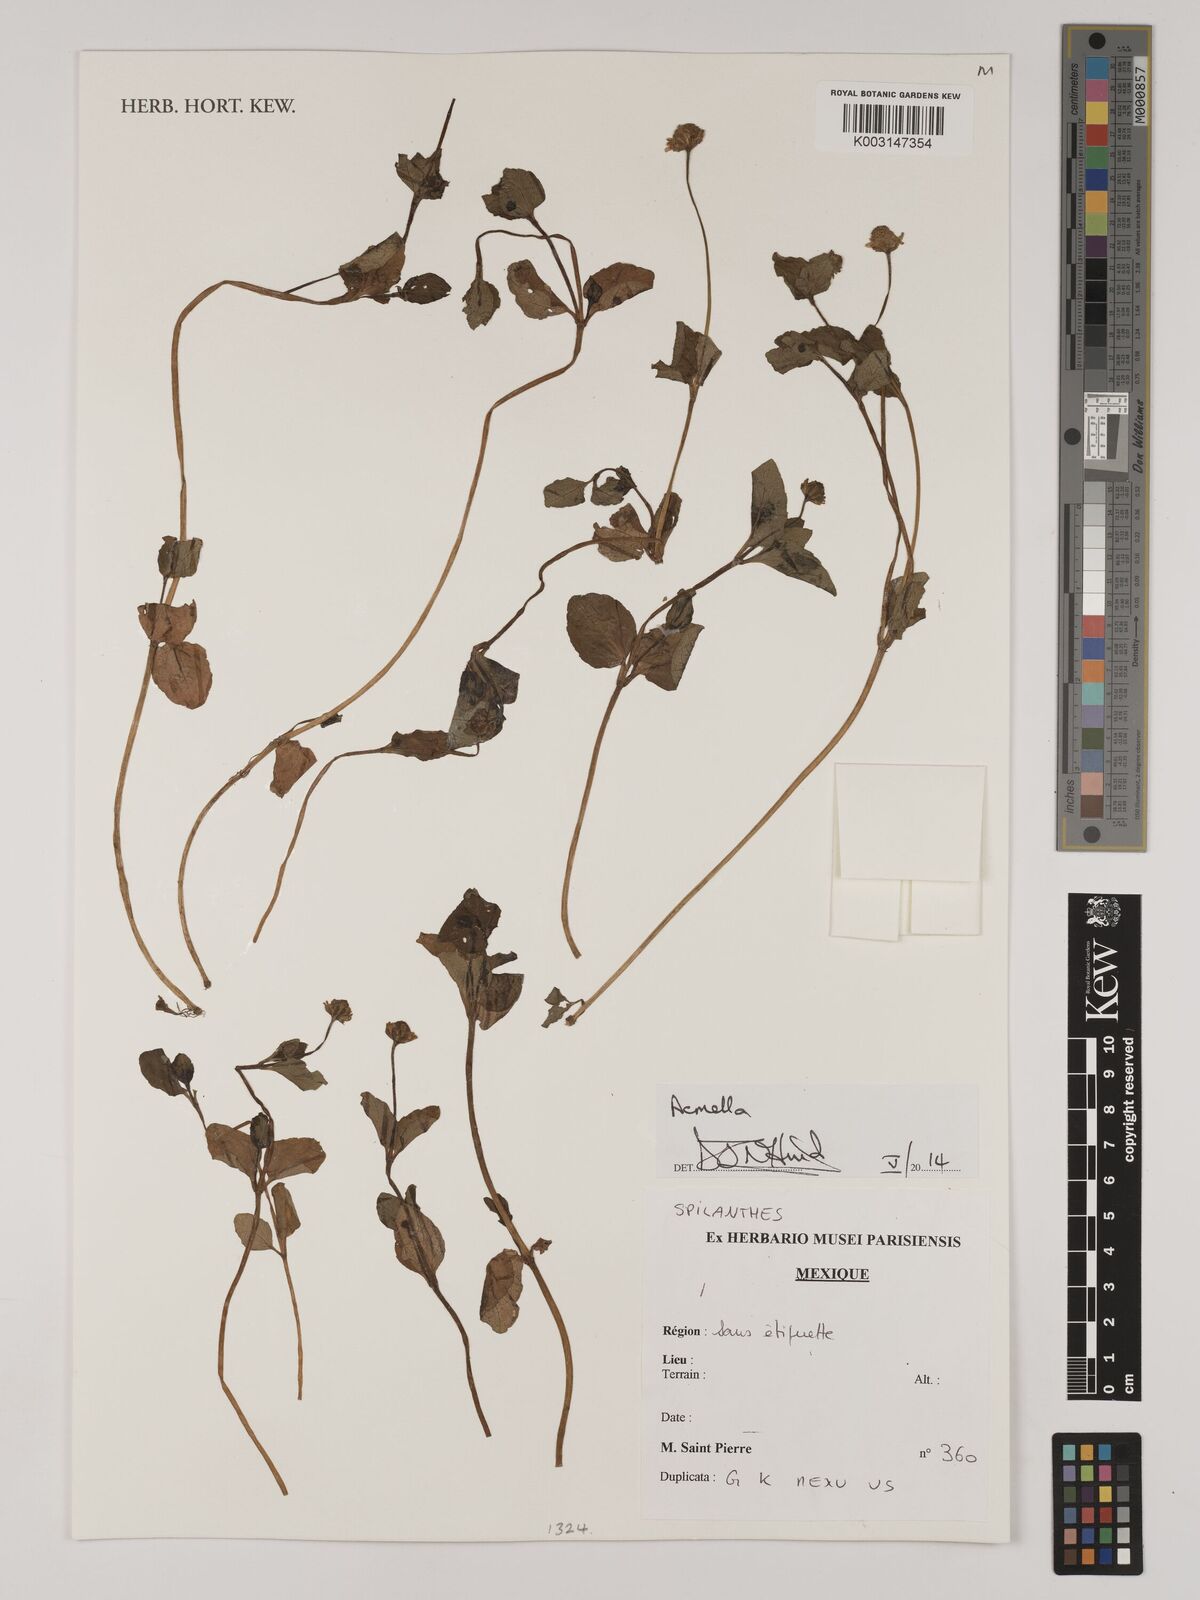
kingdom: Plantae
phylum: Tracheophyta
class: Magnoliopsida
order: Asterales
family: Asteraceae
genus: Acmella
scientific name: Acmella
